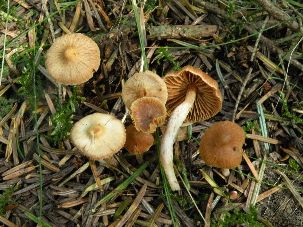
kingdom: Fungi
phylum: Basidiomycota
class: Agaricomycetes
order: Agaricales
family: Cortinariaceae
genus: Cortinarius
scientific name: Cortinarius
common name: hvidægget slørhat
